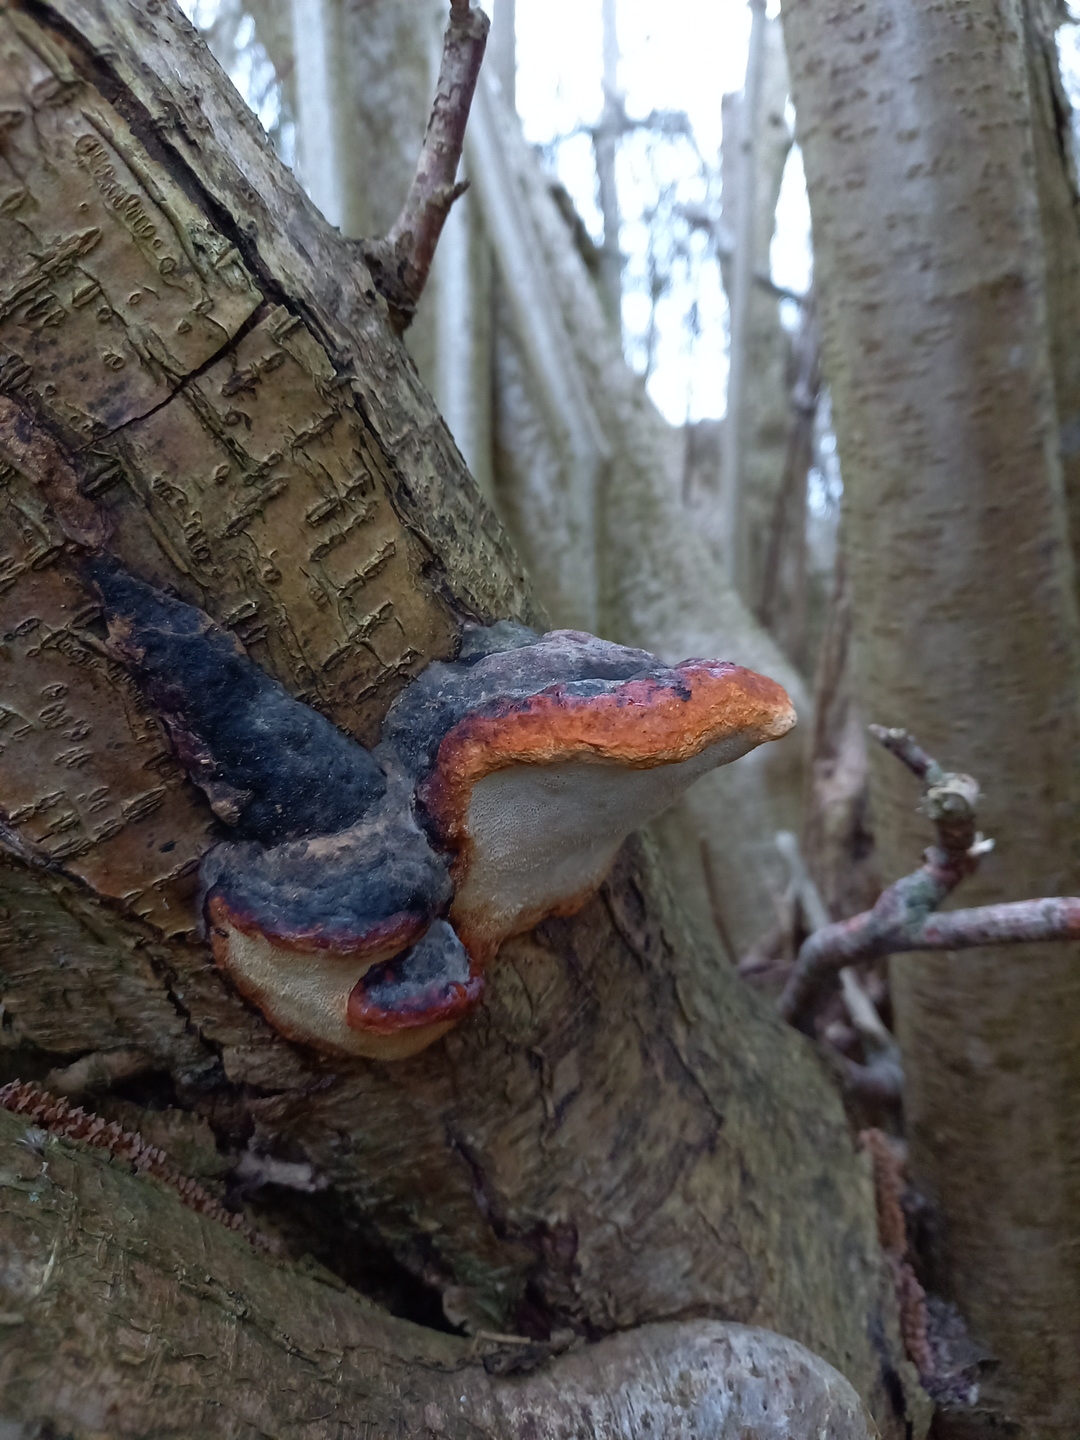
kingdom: Fungi
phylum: Basidiomycota
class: Agaricomycetes
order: Polyporales
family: Fomitopsidaceae
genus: Fomitopsis
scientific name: Fomitopsis pinicola
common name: randbæltet hovporesvamp
